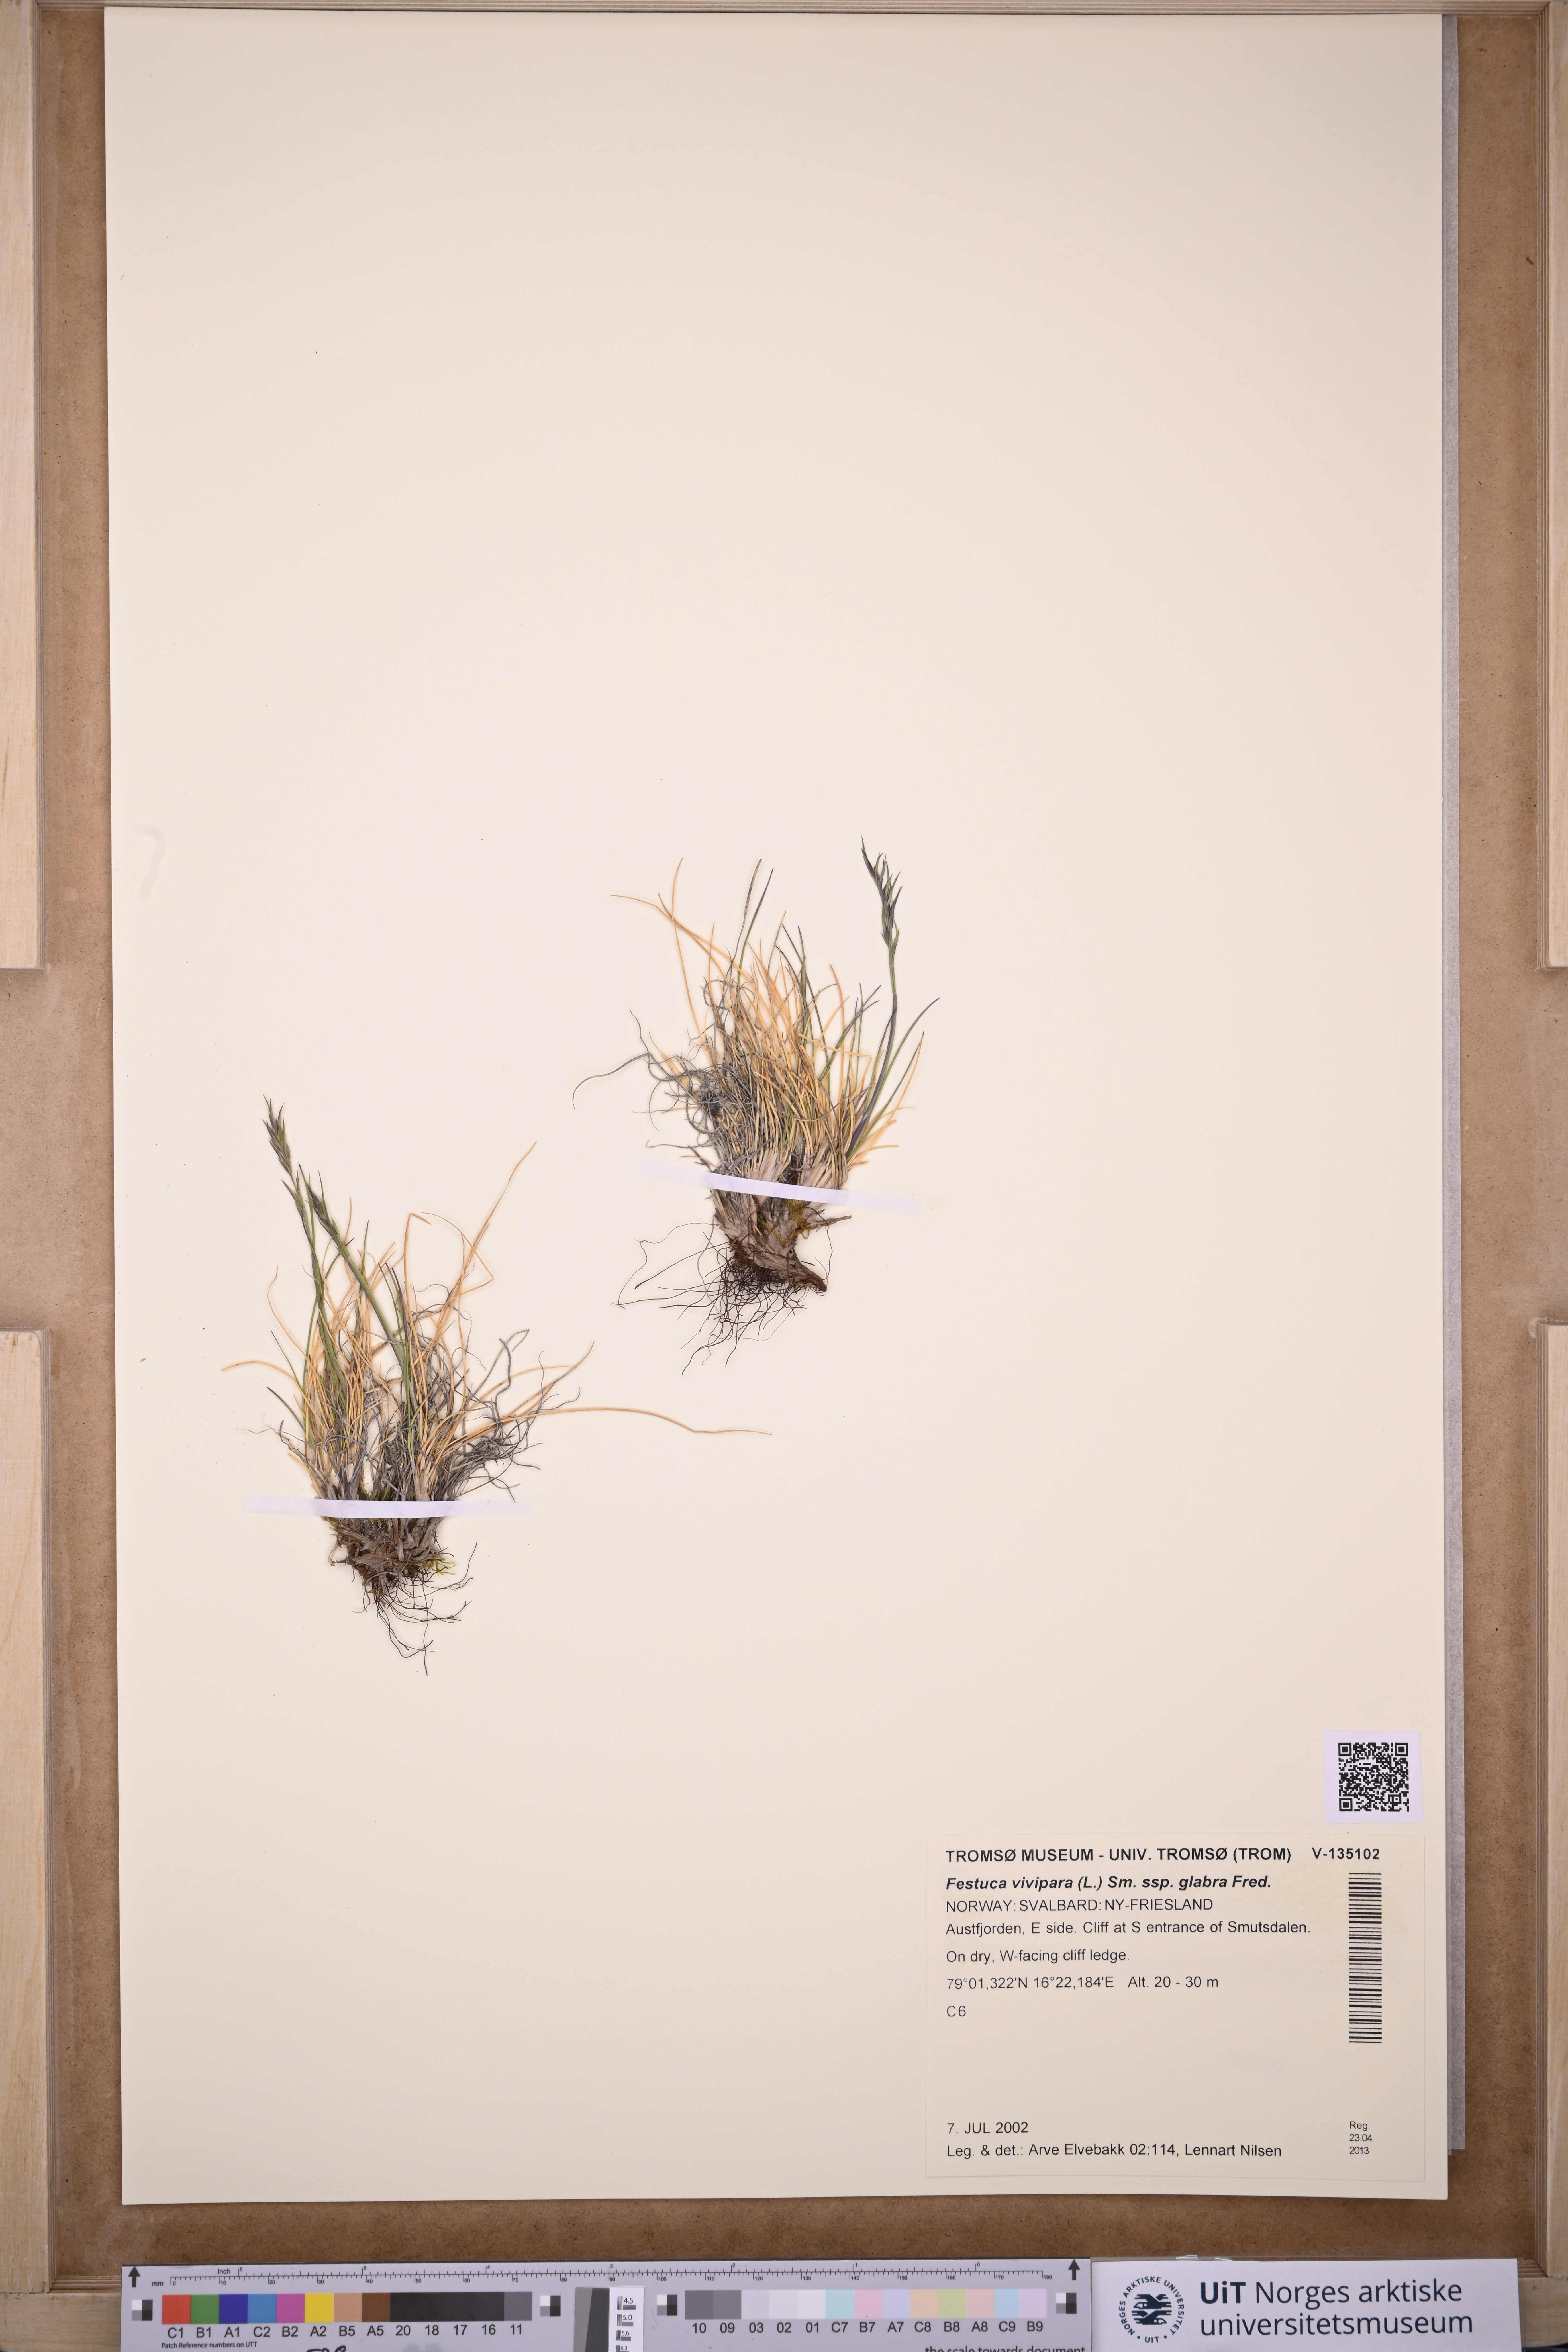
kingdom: Plantae
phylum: Tracheophyta
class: Liliopsida
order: Poales
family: Poaceae
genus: Festuca
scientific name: Festuca viviparoidea
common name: Northern fescue
